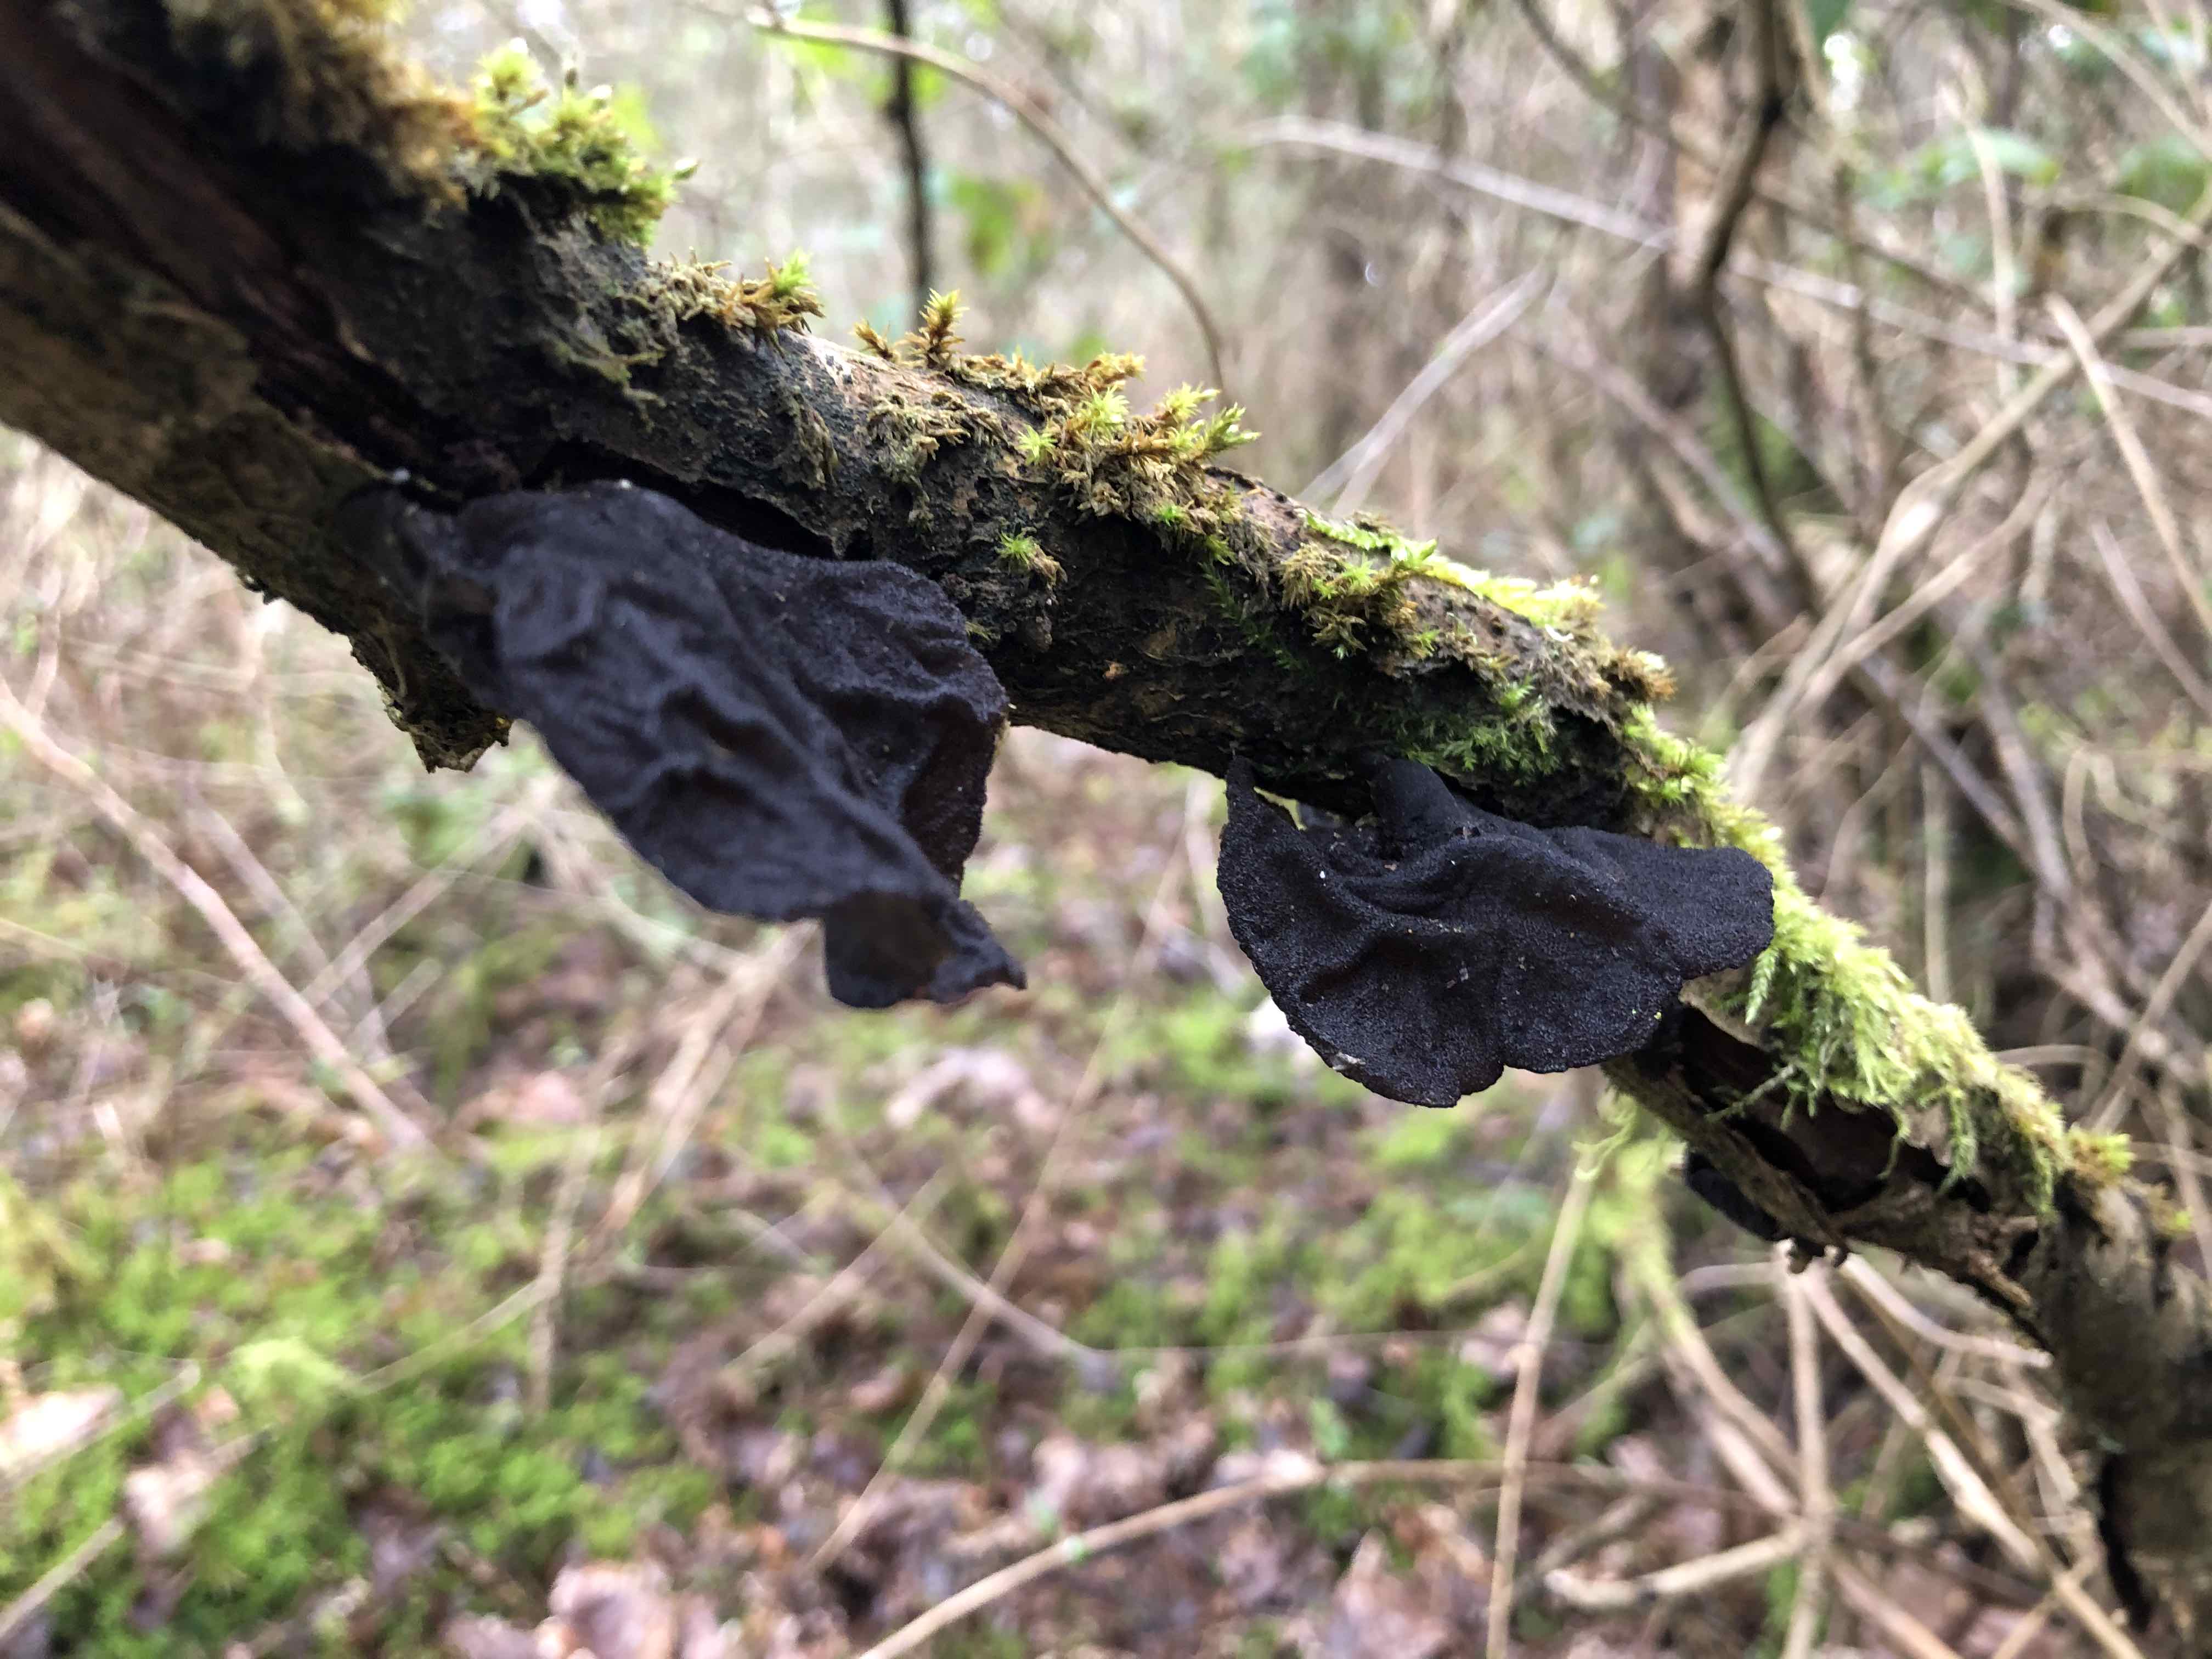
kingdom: Fungi
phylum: Basidiomycota
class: Agaricomycetes
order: Auriculariales
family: Auriculariaceae
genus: Exidia
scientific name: Exidia glandulosa
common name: ege-bævretop
